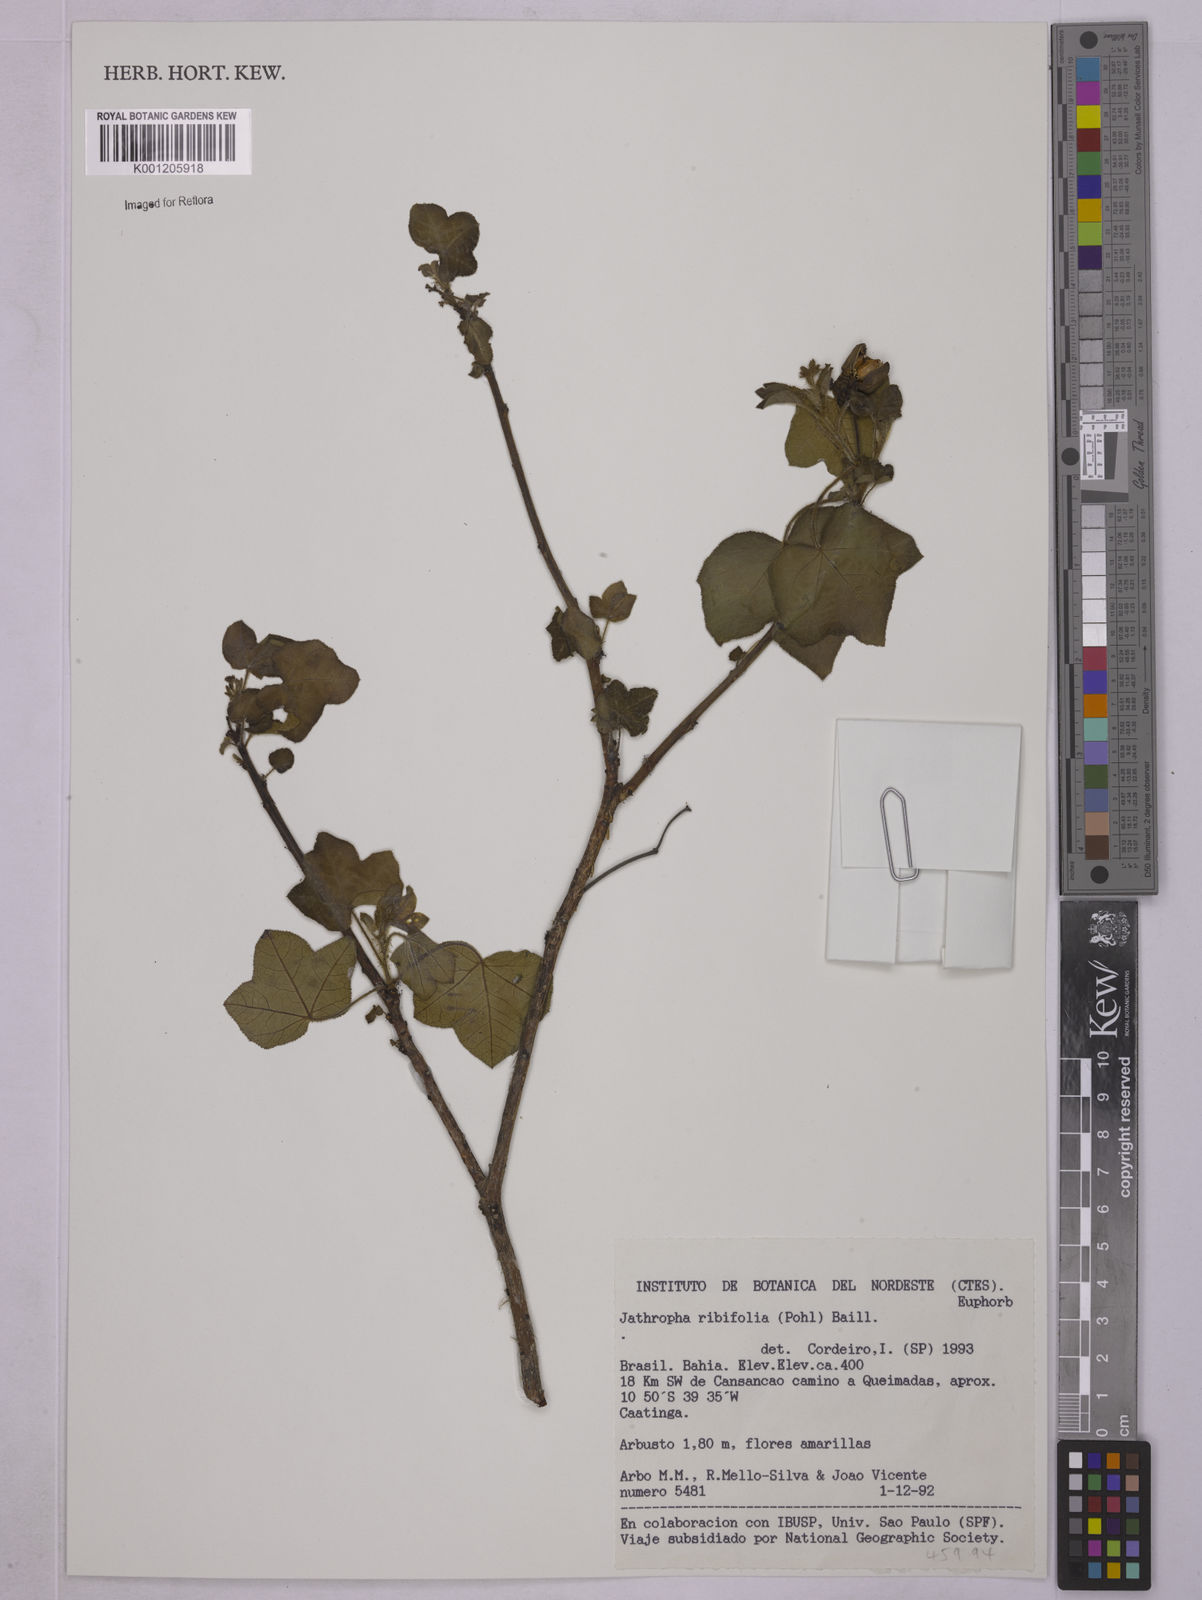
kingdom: Plantae
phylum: Tracheophyta
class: Magnoliopsida
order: Malpighiales
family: Euphorbiaceae
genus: Jatropha
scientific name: Jatropha ribifolia
